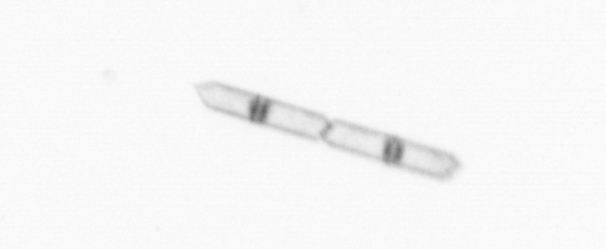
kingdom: Chromista
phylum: Ochrophyta
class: Bacillariophyceae
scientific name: Bacillariophyceae
